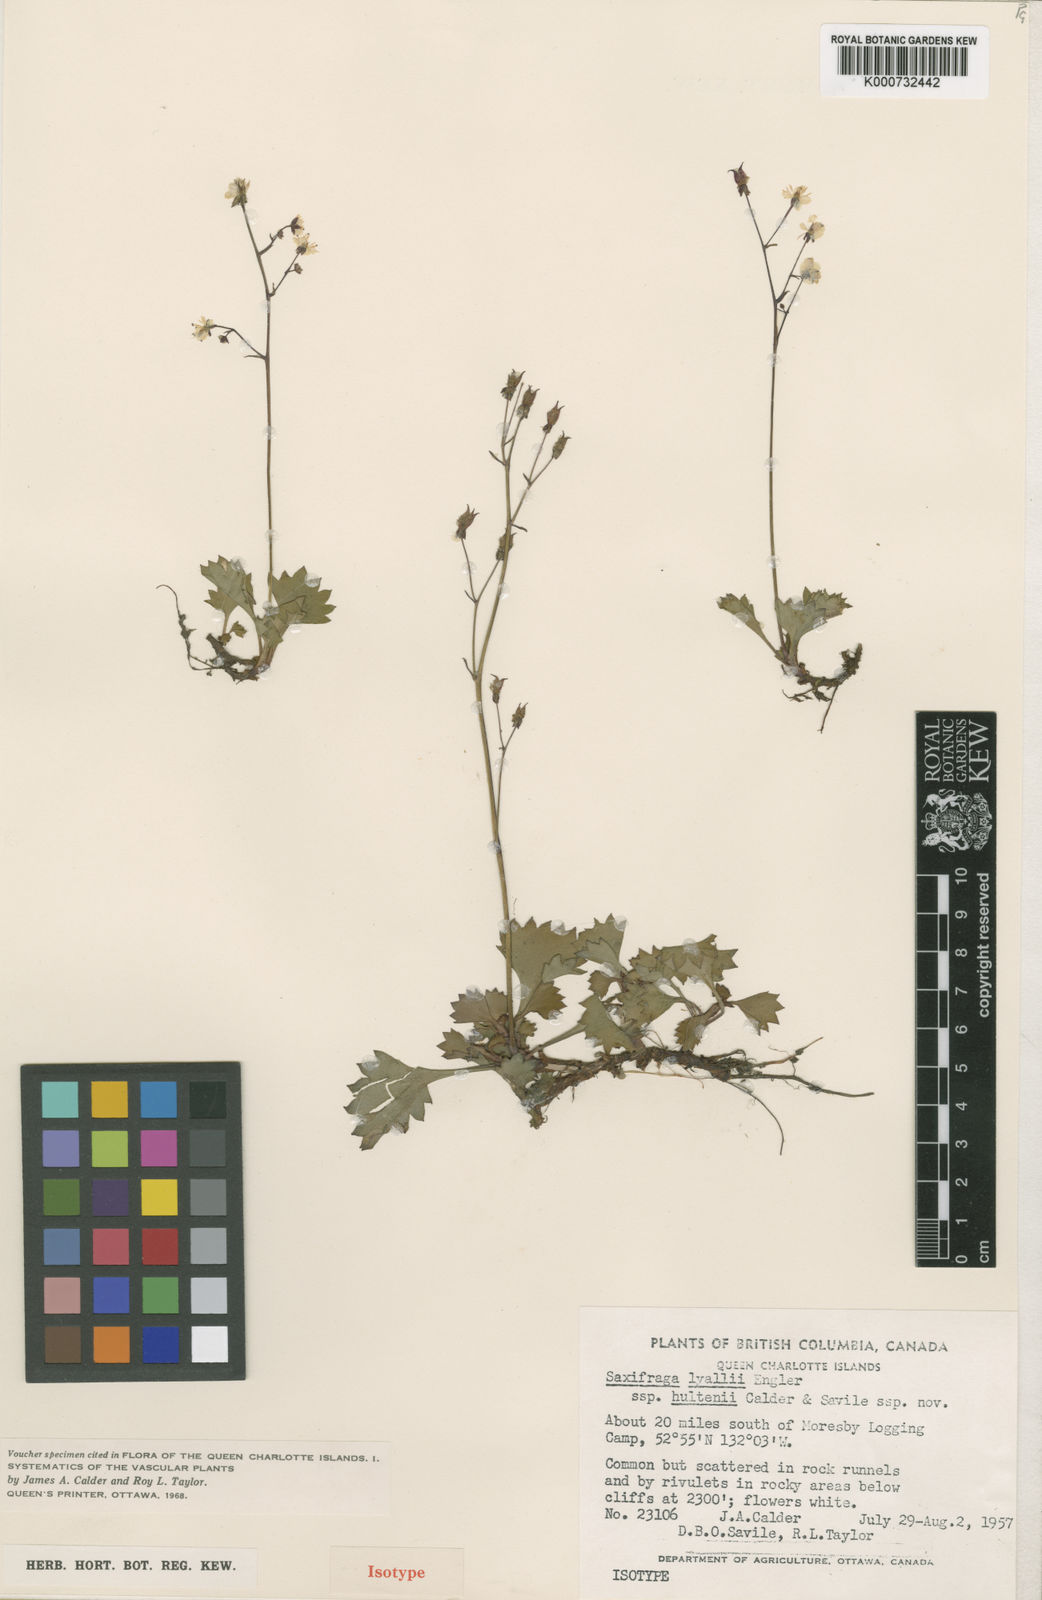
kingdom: Plantae
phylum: Tracheophyta
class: Magnoliopsida
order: Saxifragales
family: Saxifragaceae
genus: Micranthes
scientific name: Micranthes lyallii
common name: Lyall's saxifrage
